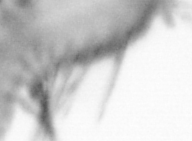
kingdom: Animalia
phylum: Annelida
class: Polychaeta
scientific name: Polychaeta
